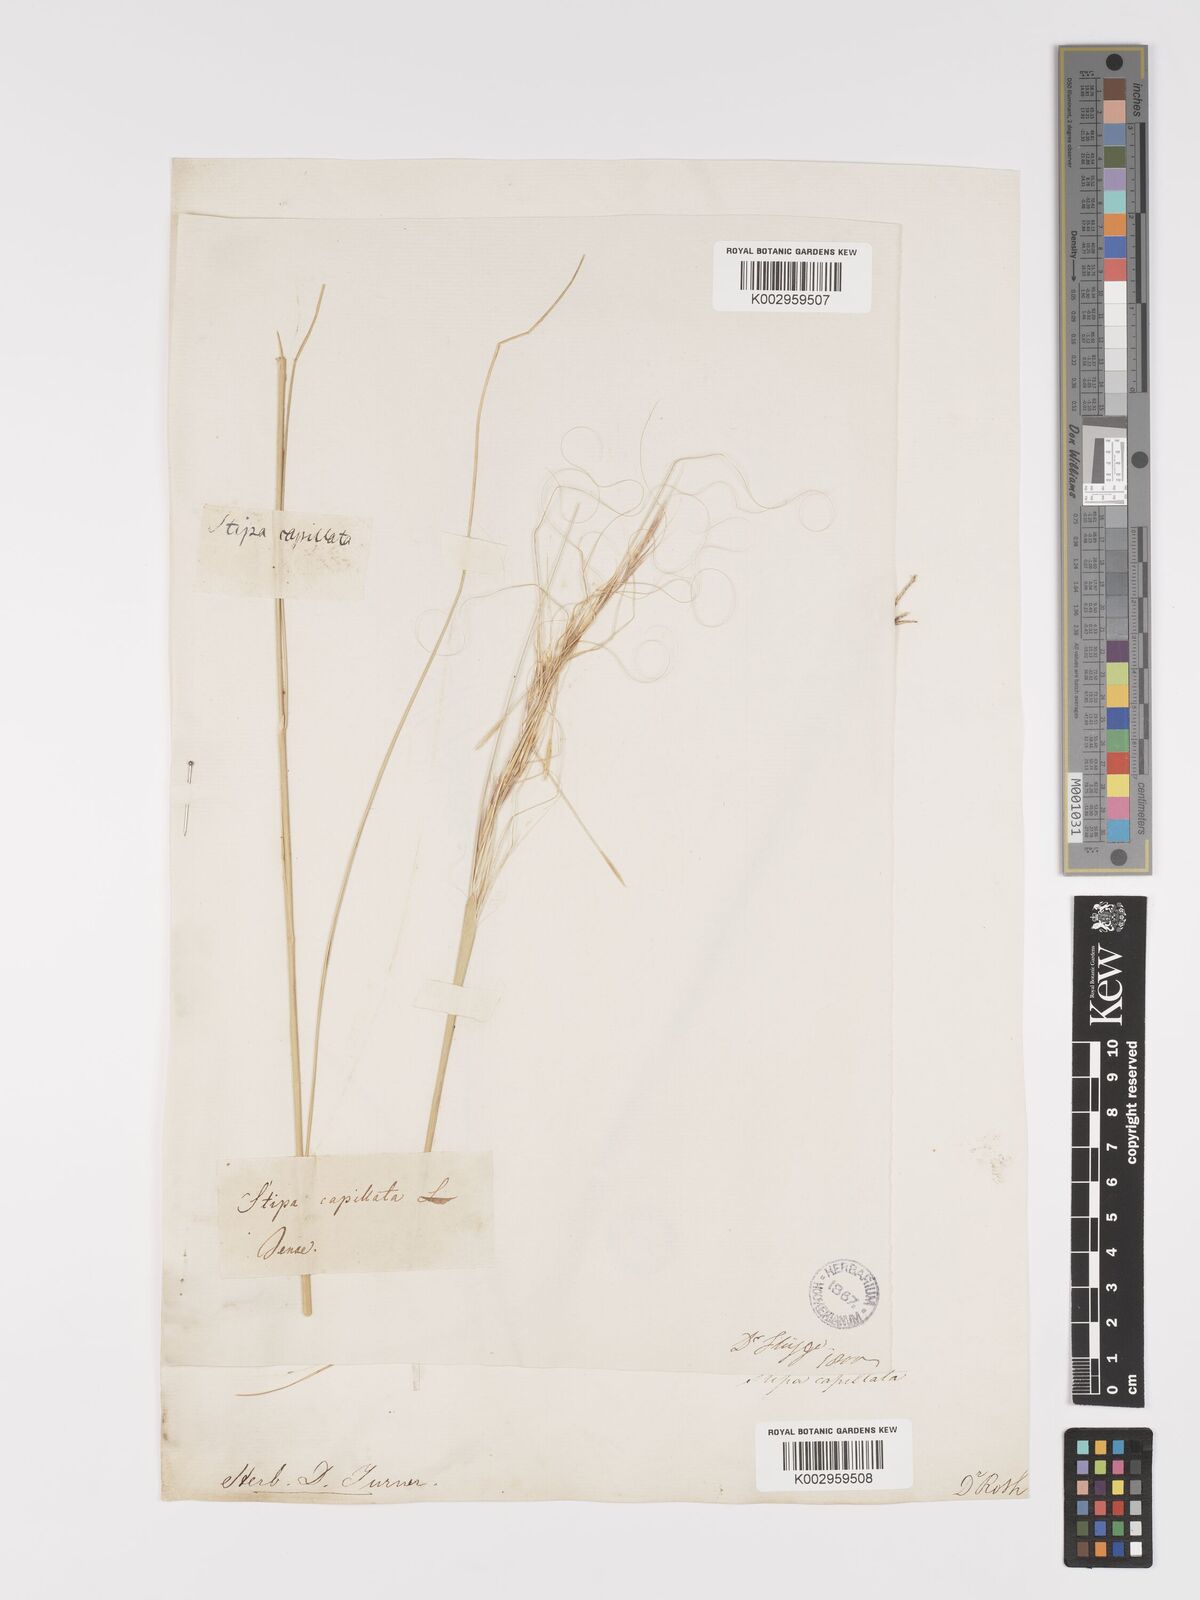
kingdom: Plantae
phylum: Tracheophyta
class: Liliopsida
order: Poales
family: Poaceae
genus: Stipa
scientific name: Stipa capillata
